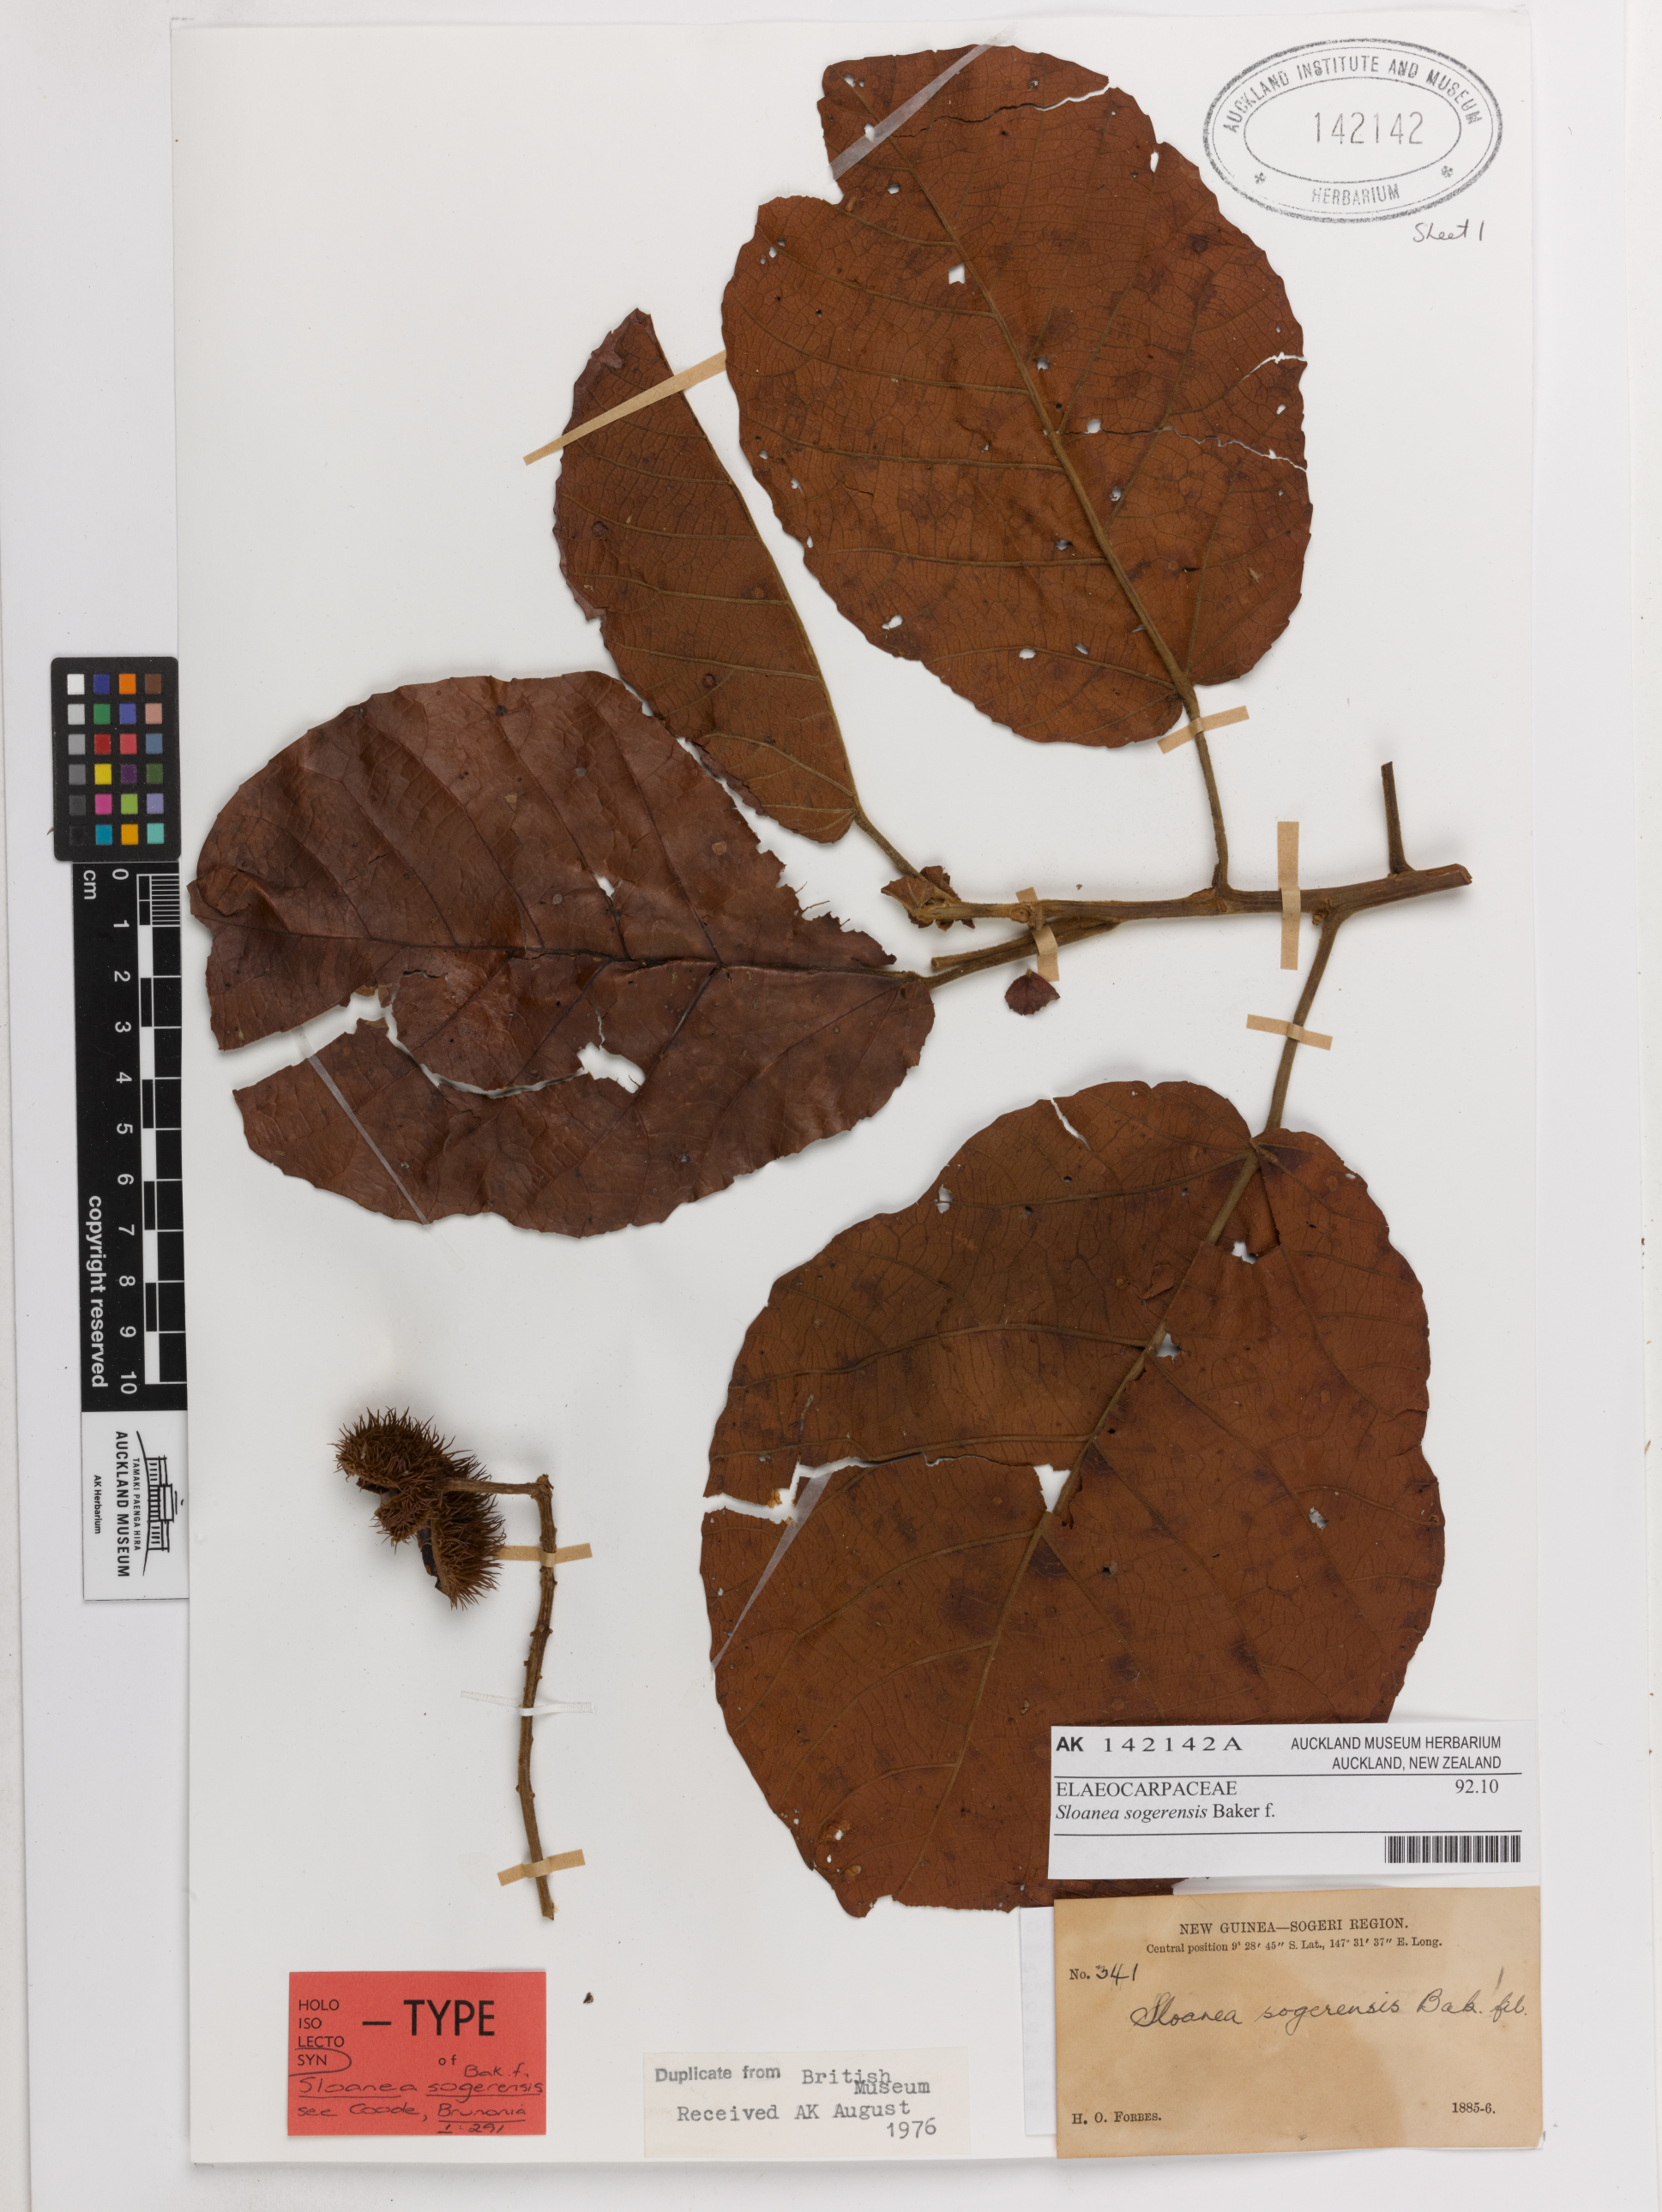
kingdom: Plantae
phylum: Tracheophyta
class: Magnoliopsida
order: Oxalidales
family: Elaeocarpaceae
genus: Sloanea
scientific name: Sloanea sogerensis
